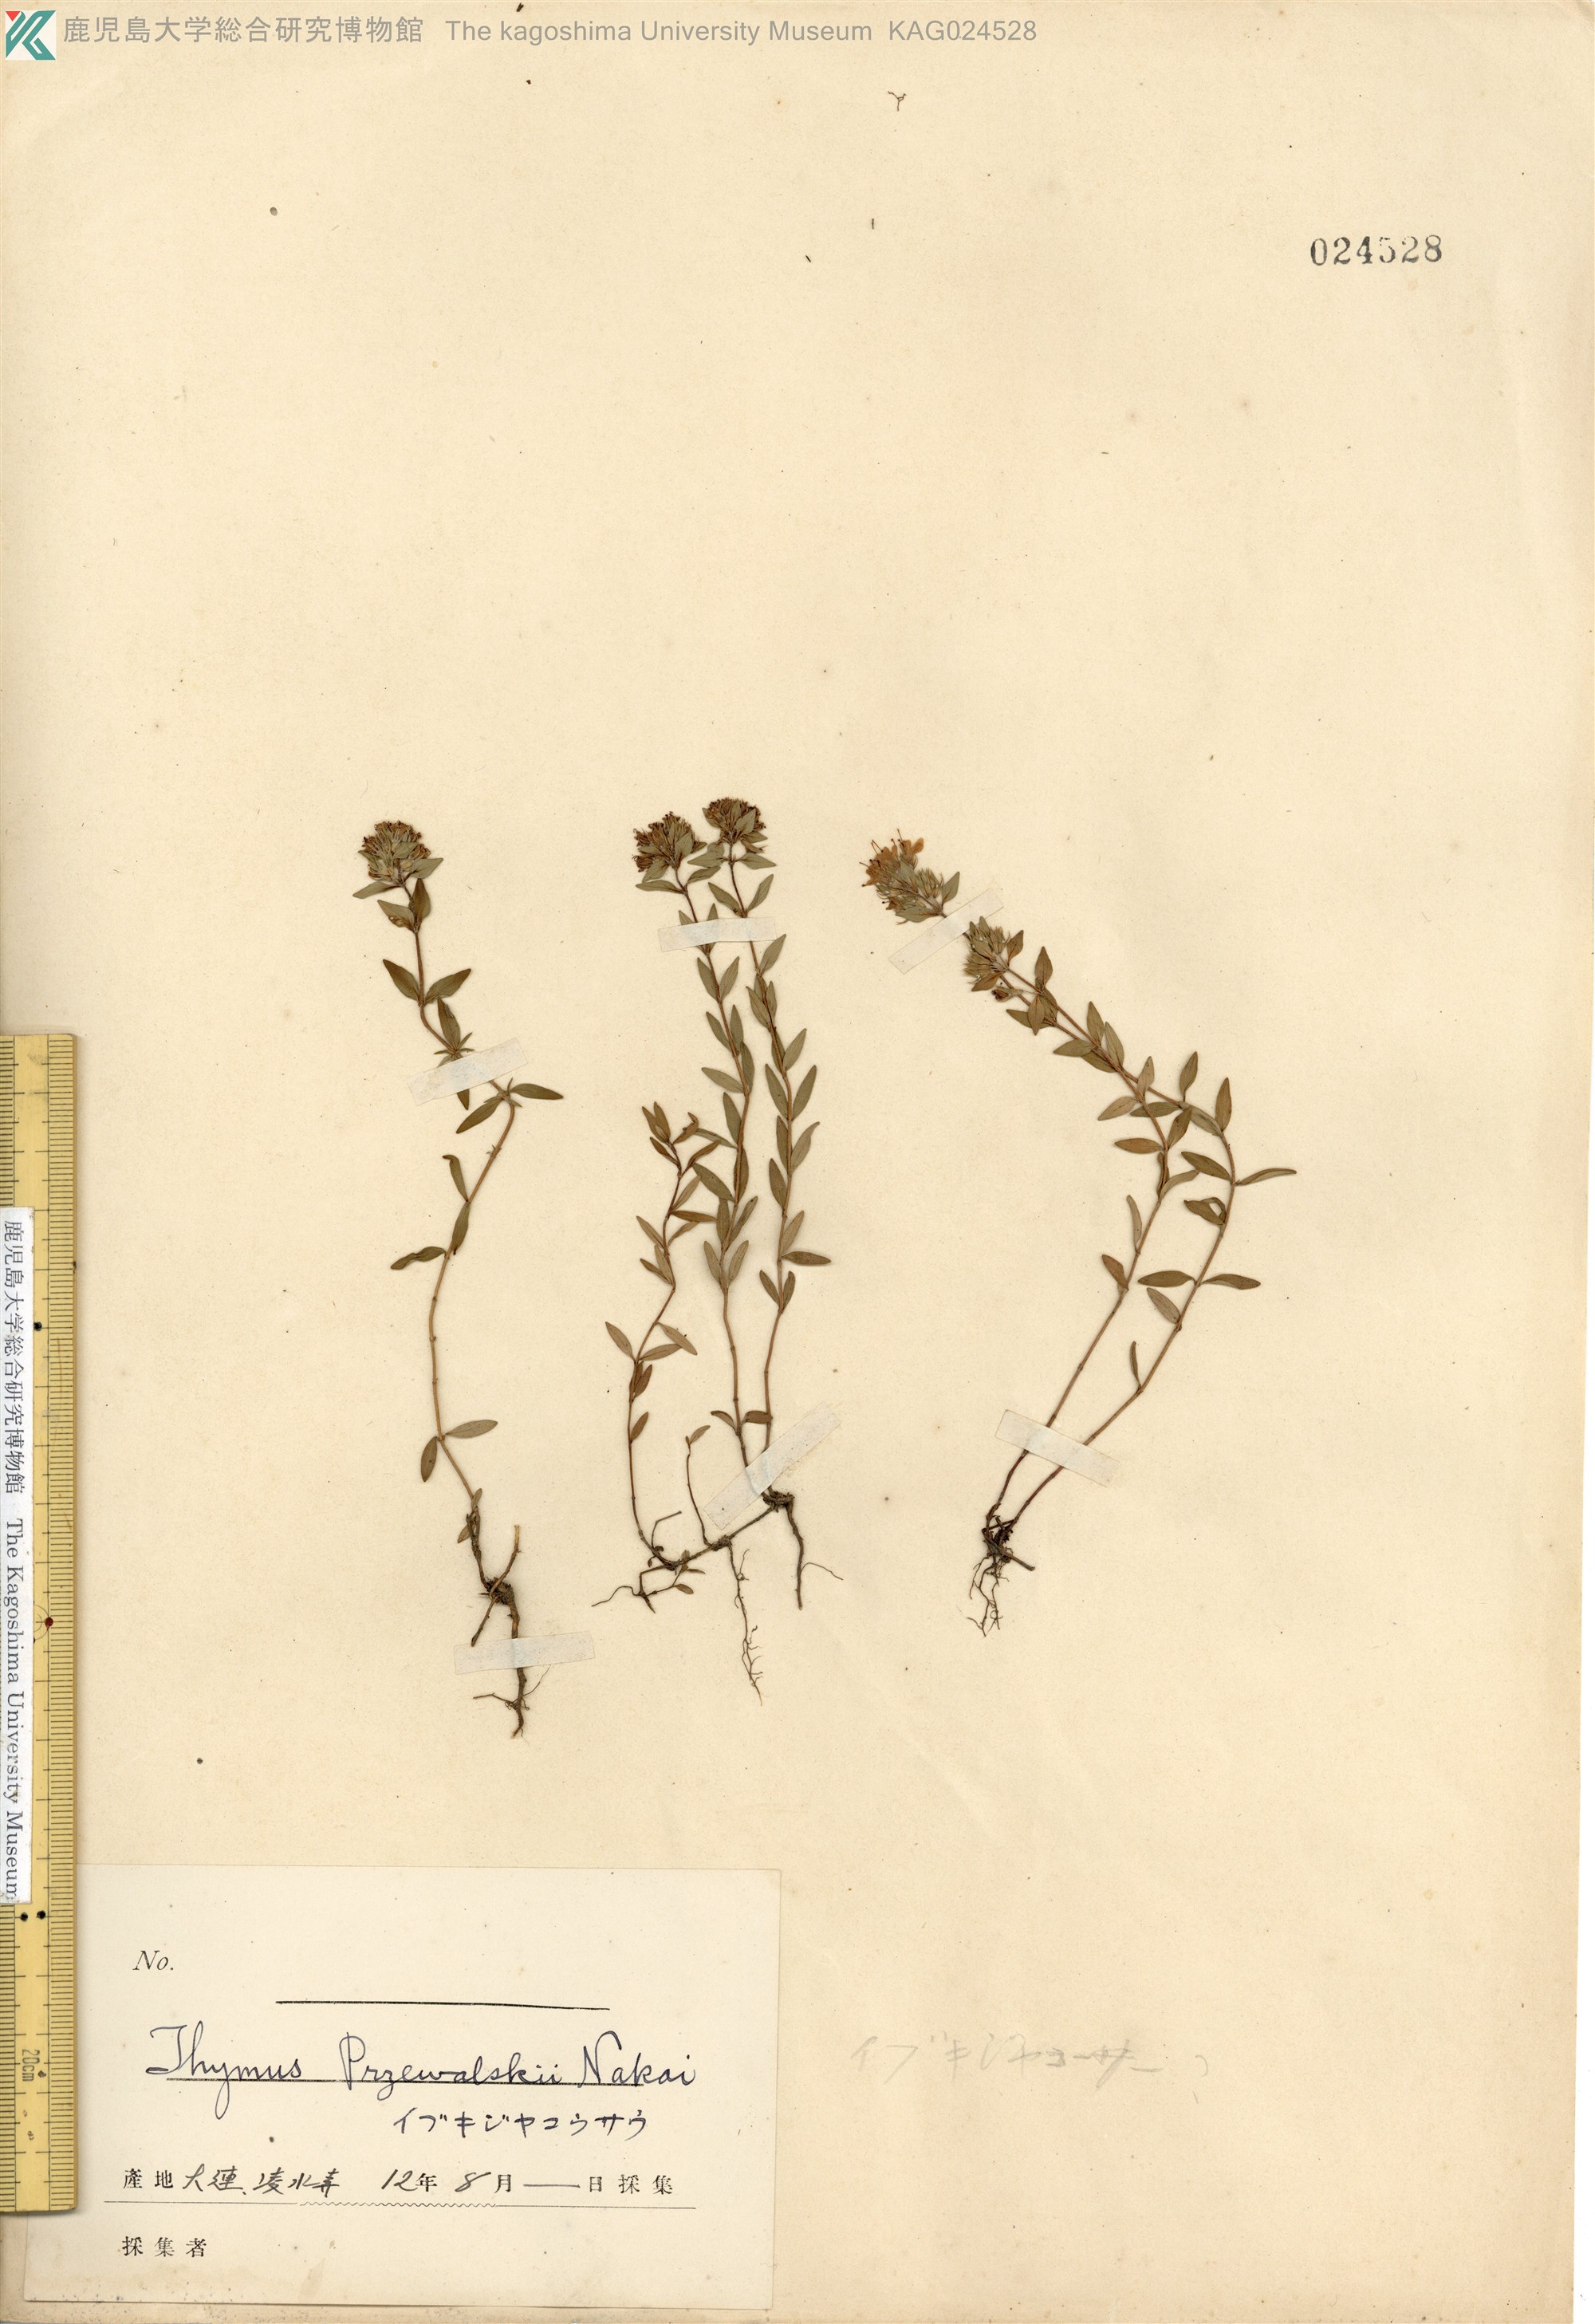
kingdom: Plantae
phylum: Tracheophyta
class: Magnoliopsida
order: Lamiales
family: Lamiaceae
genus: Thymus
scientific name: Thymus quinquecostatus
